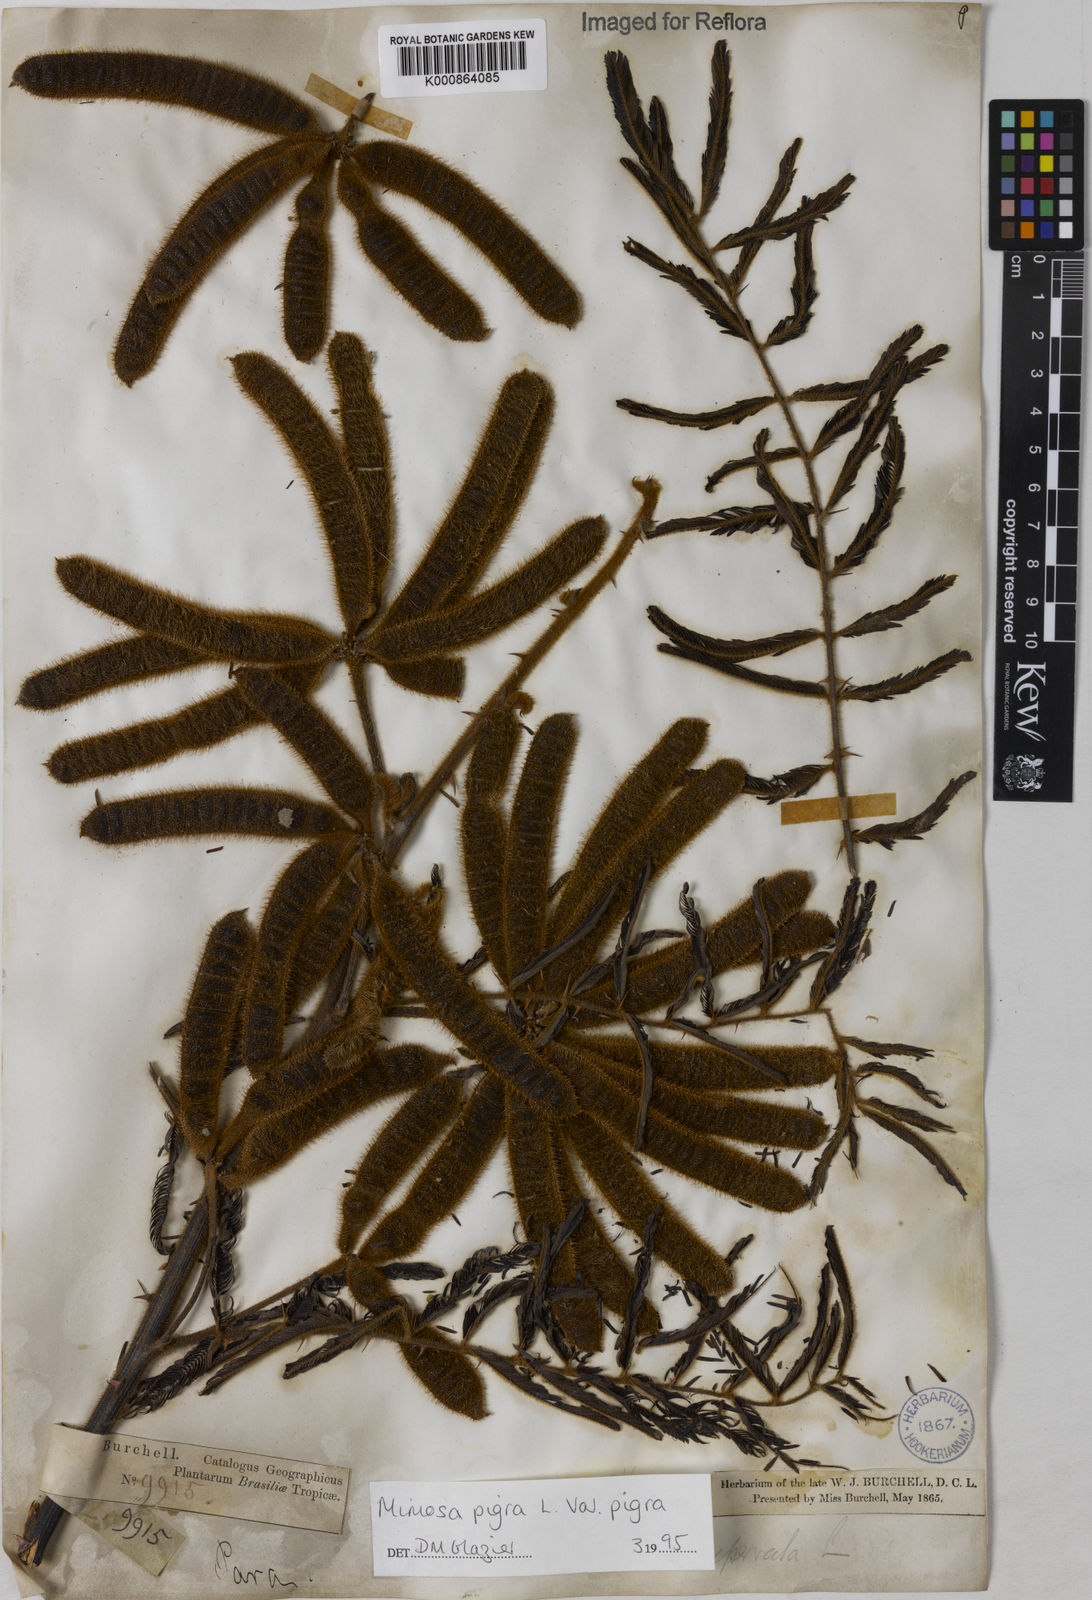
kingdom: Plantae
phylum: Tracheophyta
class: Magnoliopsida
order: Fabales
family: Fabaceae
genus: Mimosa
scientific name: Mimosa pigra
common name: Black mimosa
